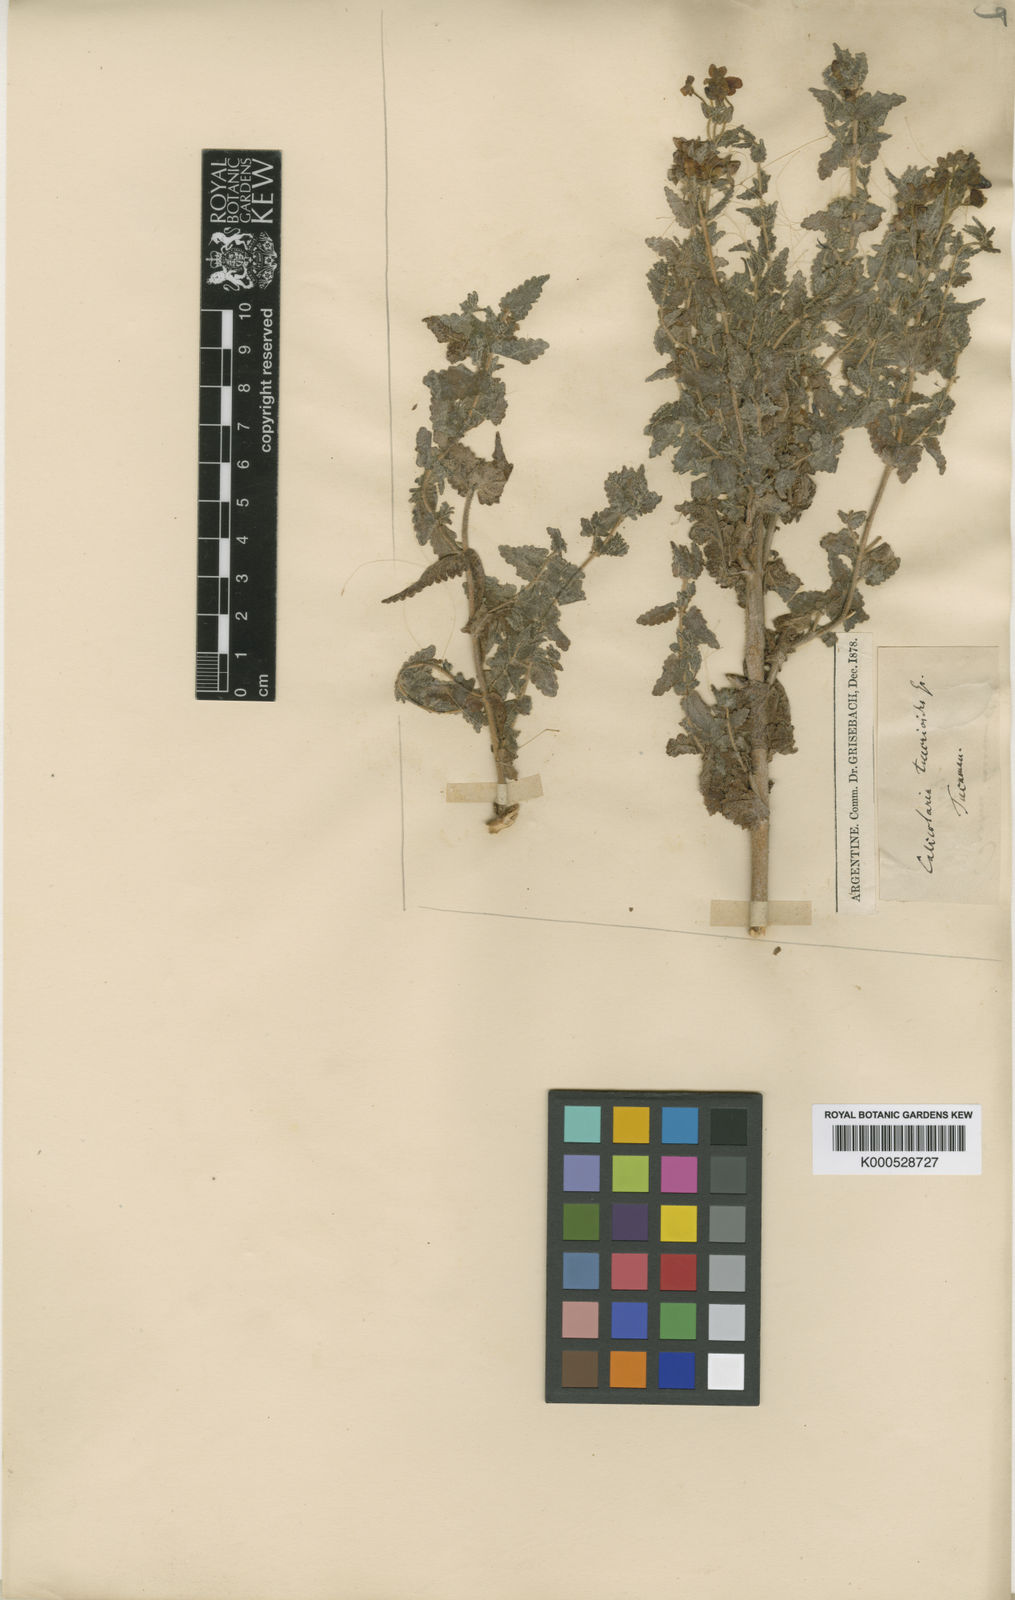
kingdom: Plantae
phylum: Tracheophyta
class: Magnoliopsida
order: Lamiales
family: Calceolariaceae
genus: Calceolaria
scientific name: Calceolaria teucrioides
